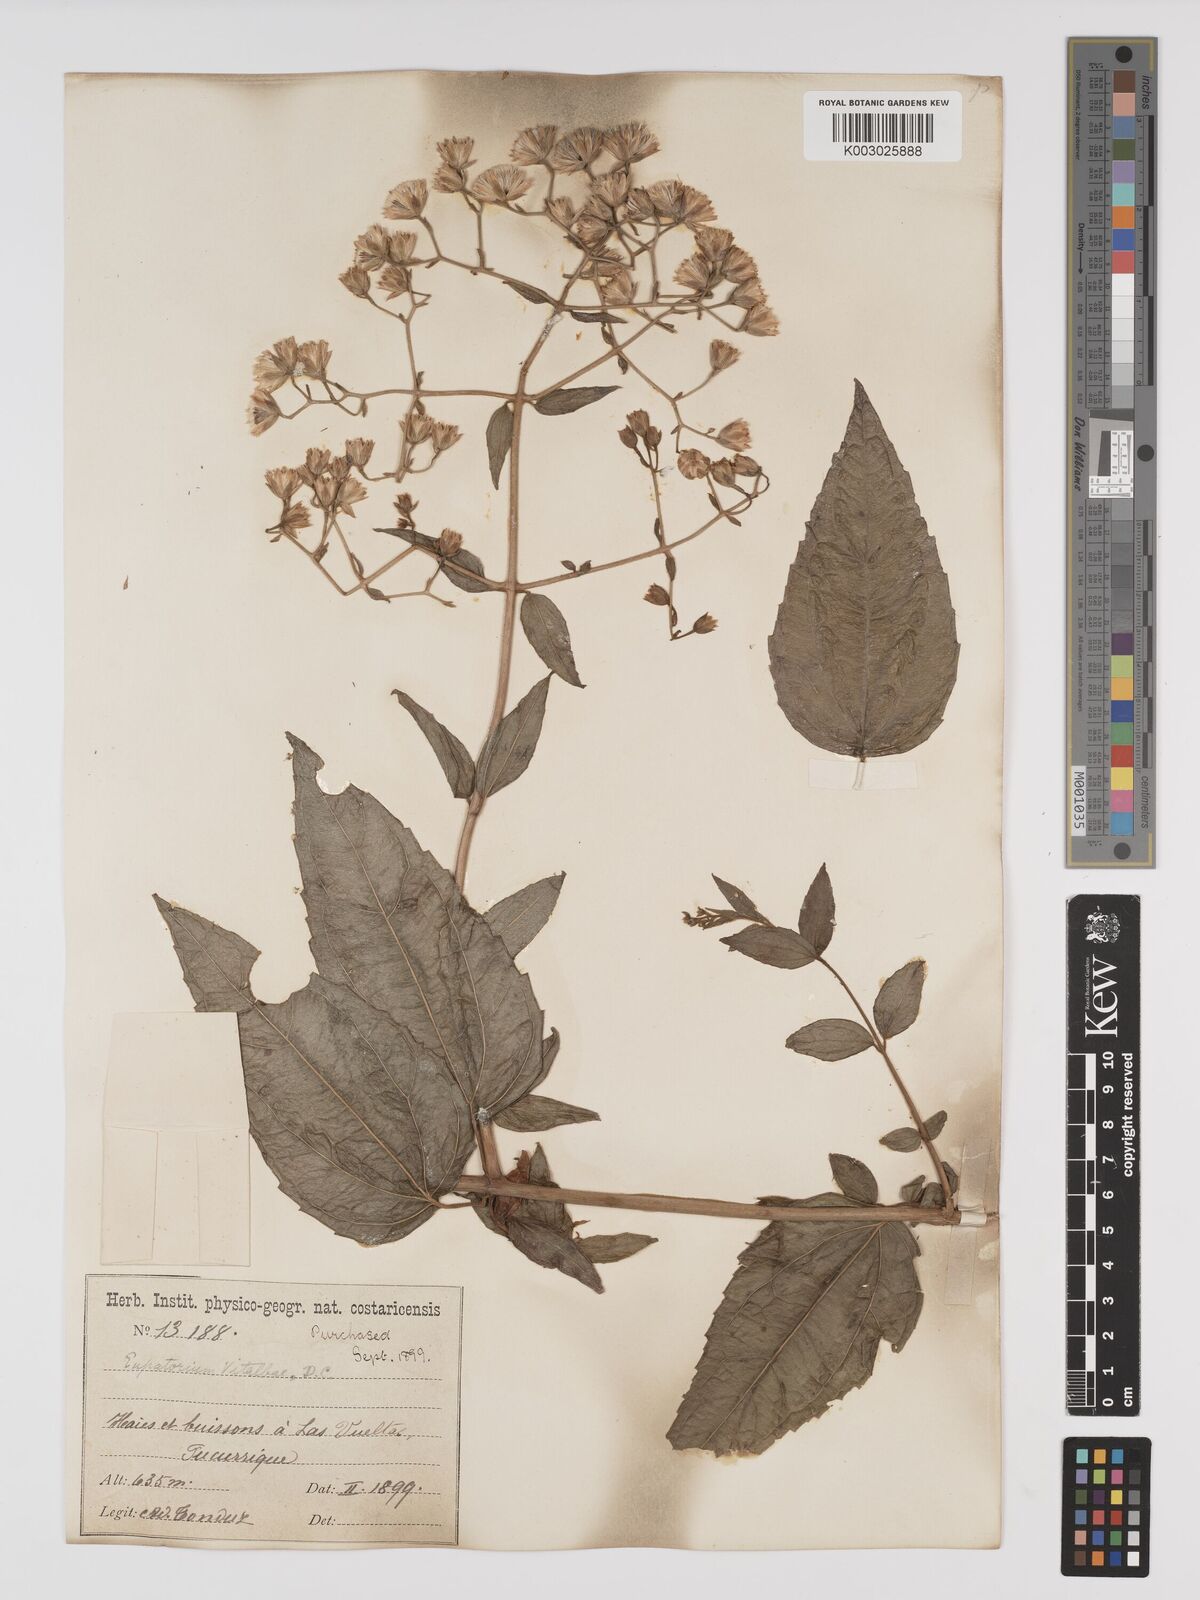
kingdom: Plantae
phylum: Tracheophyta
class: Magnoliopsida
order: Asterales
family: Asteraceae
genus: Heterocondylus
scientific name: Heterocondylus vitalbae
